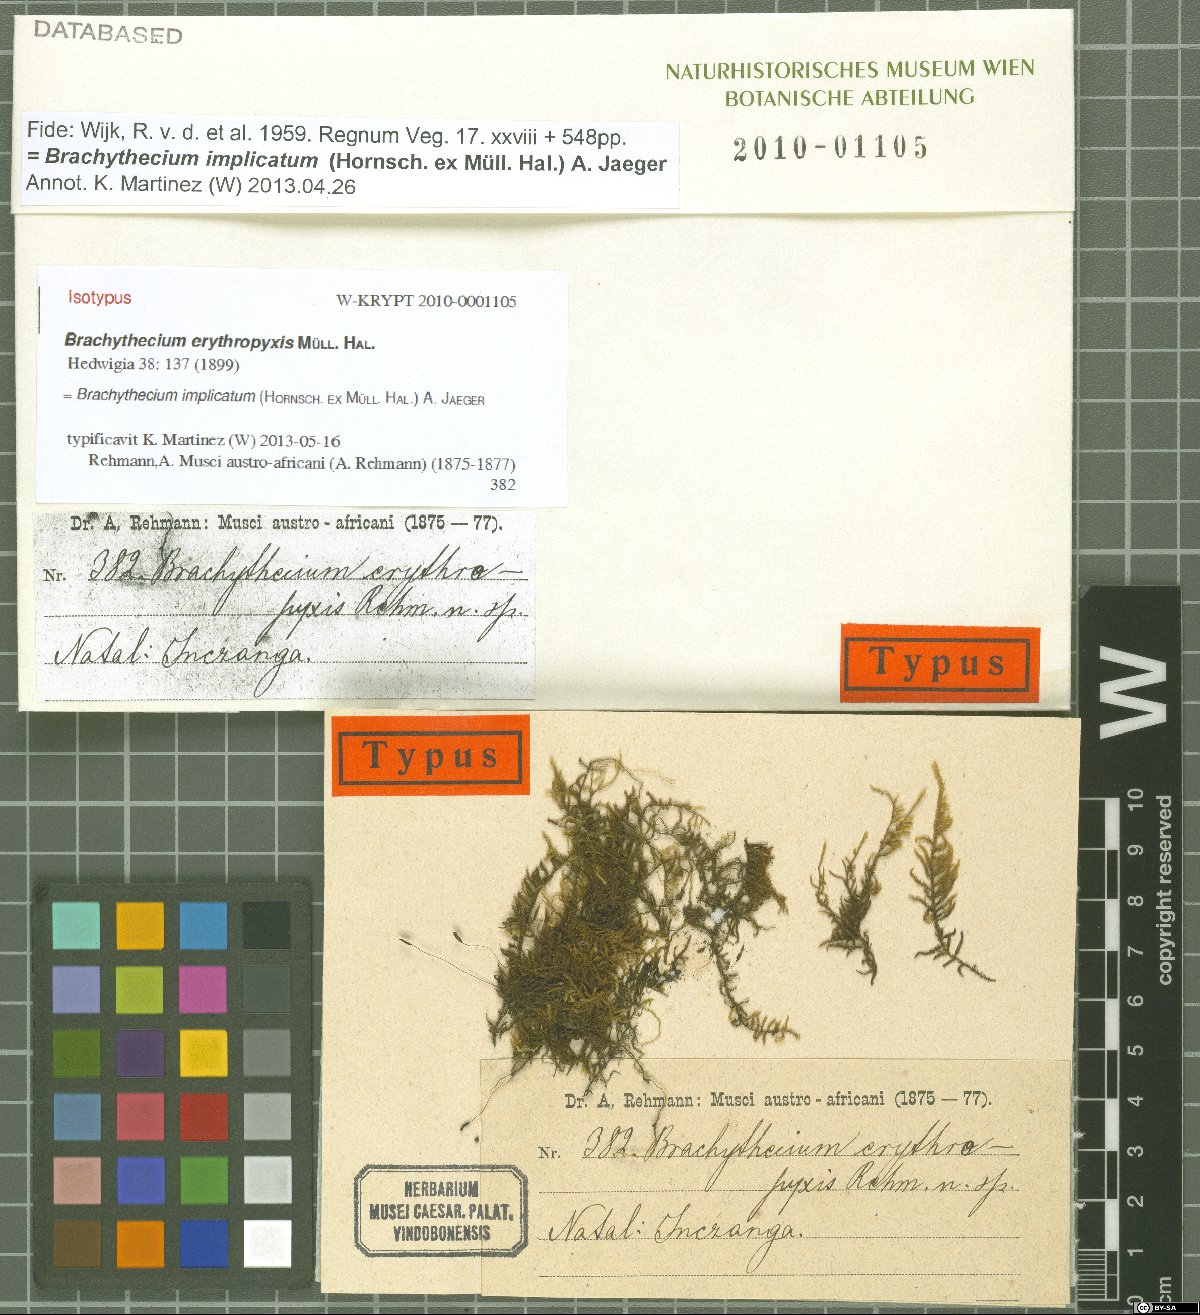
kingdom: Plantae
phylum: Bryophyta
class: Bryopsida
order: Hypnales
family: Brachytheciaceae
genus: Brachythecium
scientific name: Brachythecium ruderale
